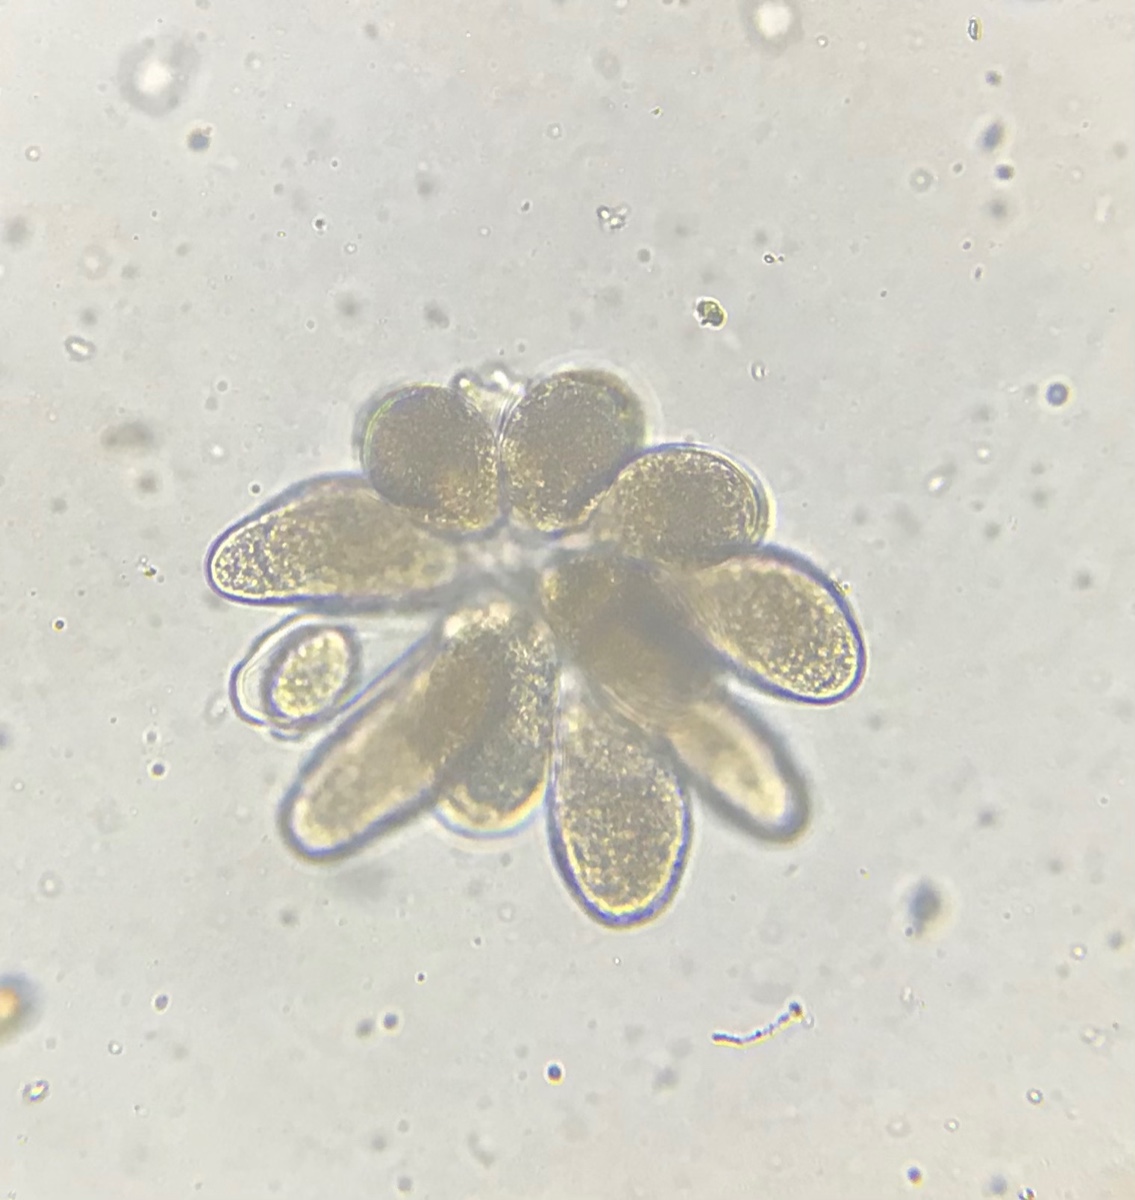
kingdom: Fungi
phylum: Ascomycota
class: Leotiomycetes
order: Helotiales
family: Erysiphaceae
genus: Golovinomyces
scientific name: Golovinomyces magnicellulatus
